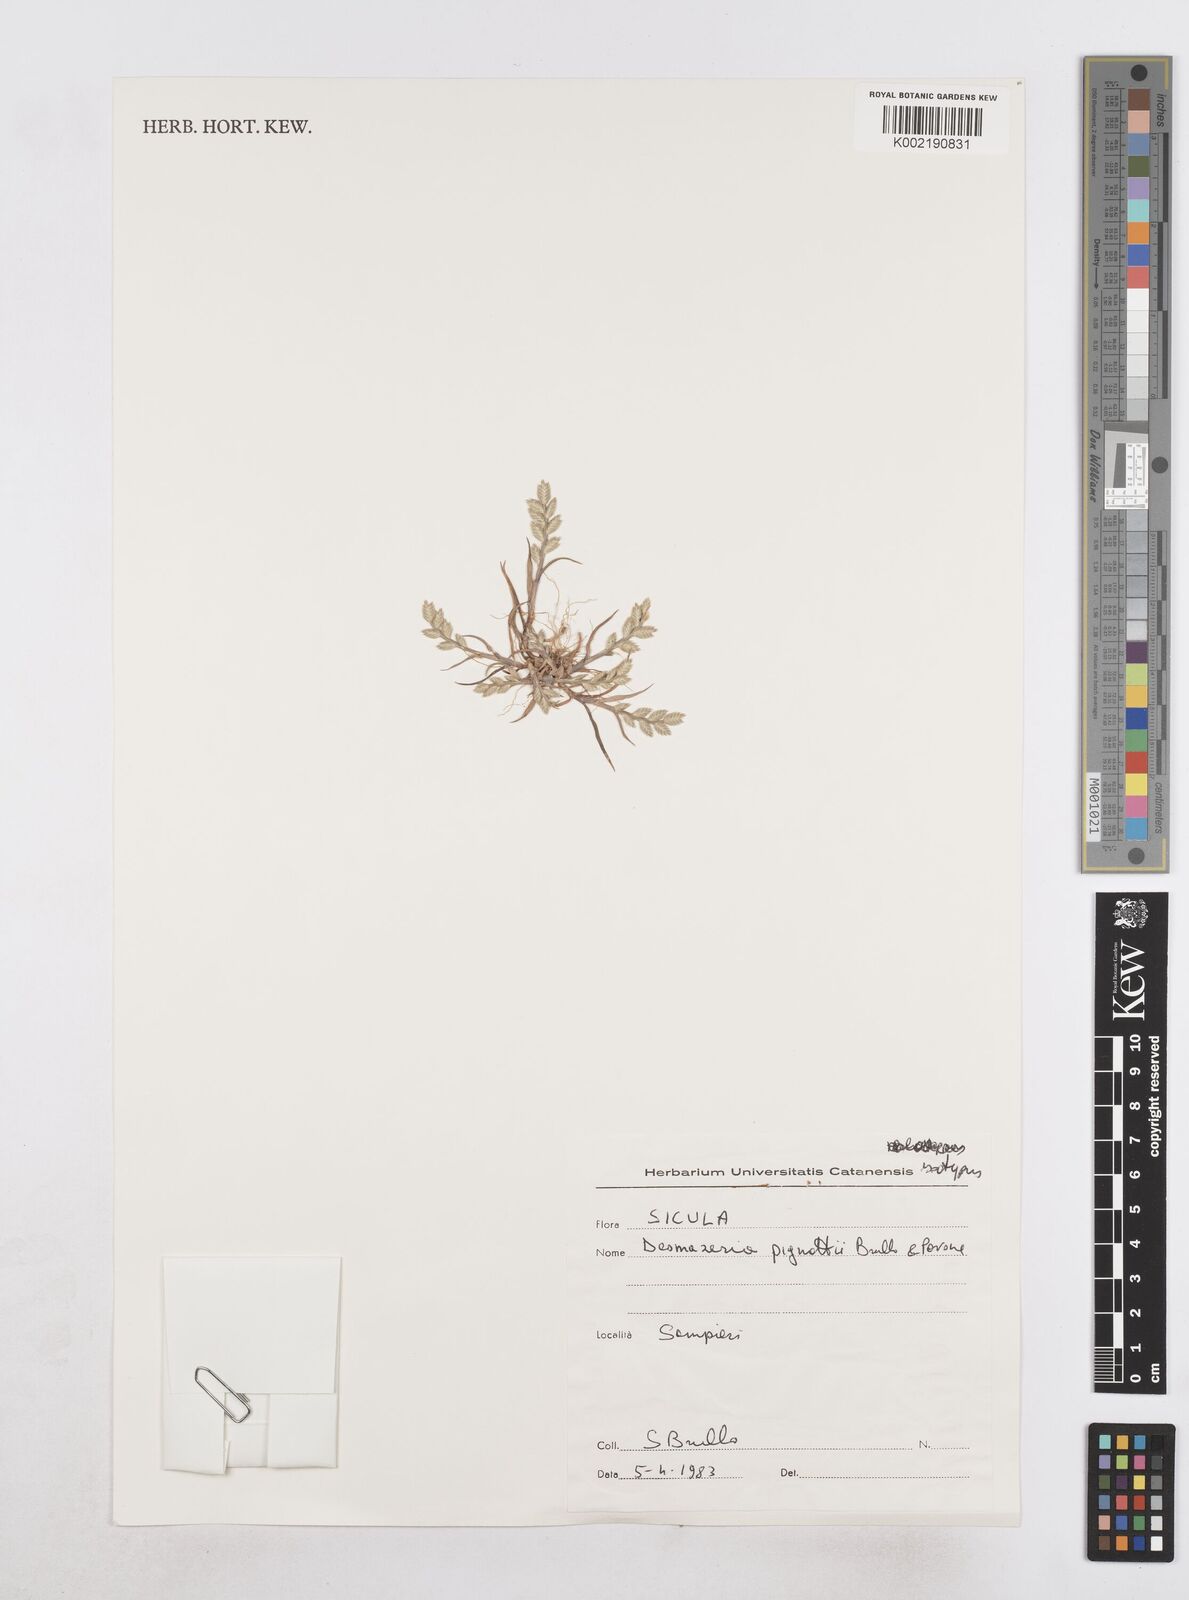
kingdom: Plantae
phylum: Tracheophyta
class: Liliopsida
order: Poales
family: Poaceae
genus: Desmazeria
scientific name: Desmazeria sicula
